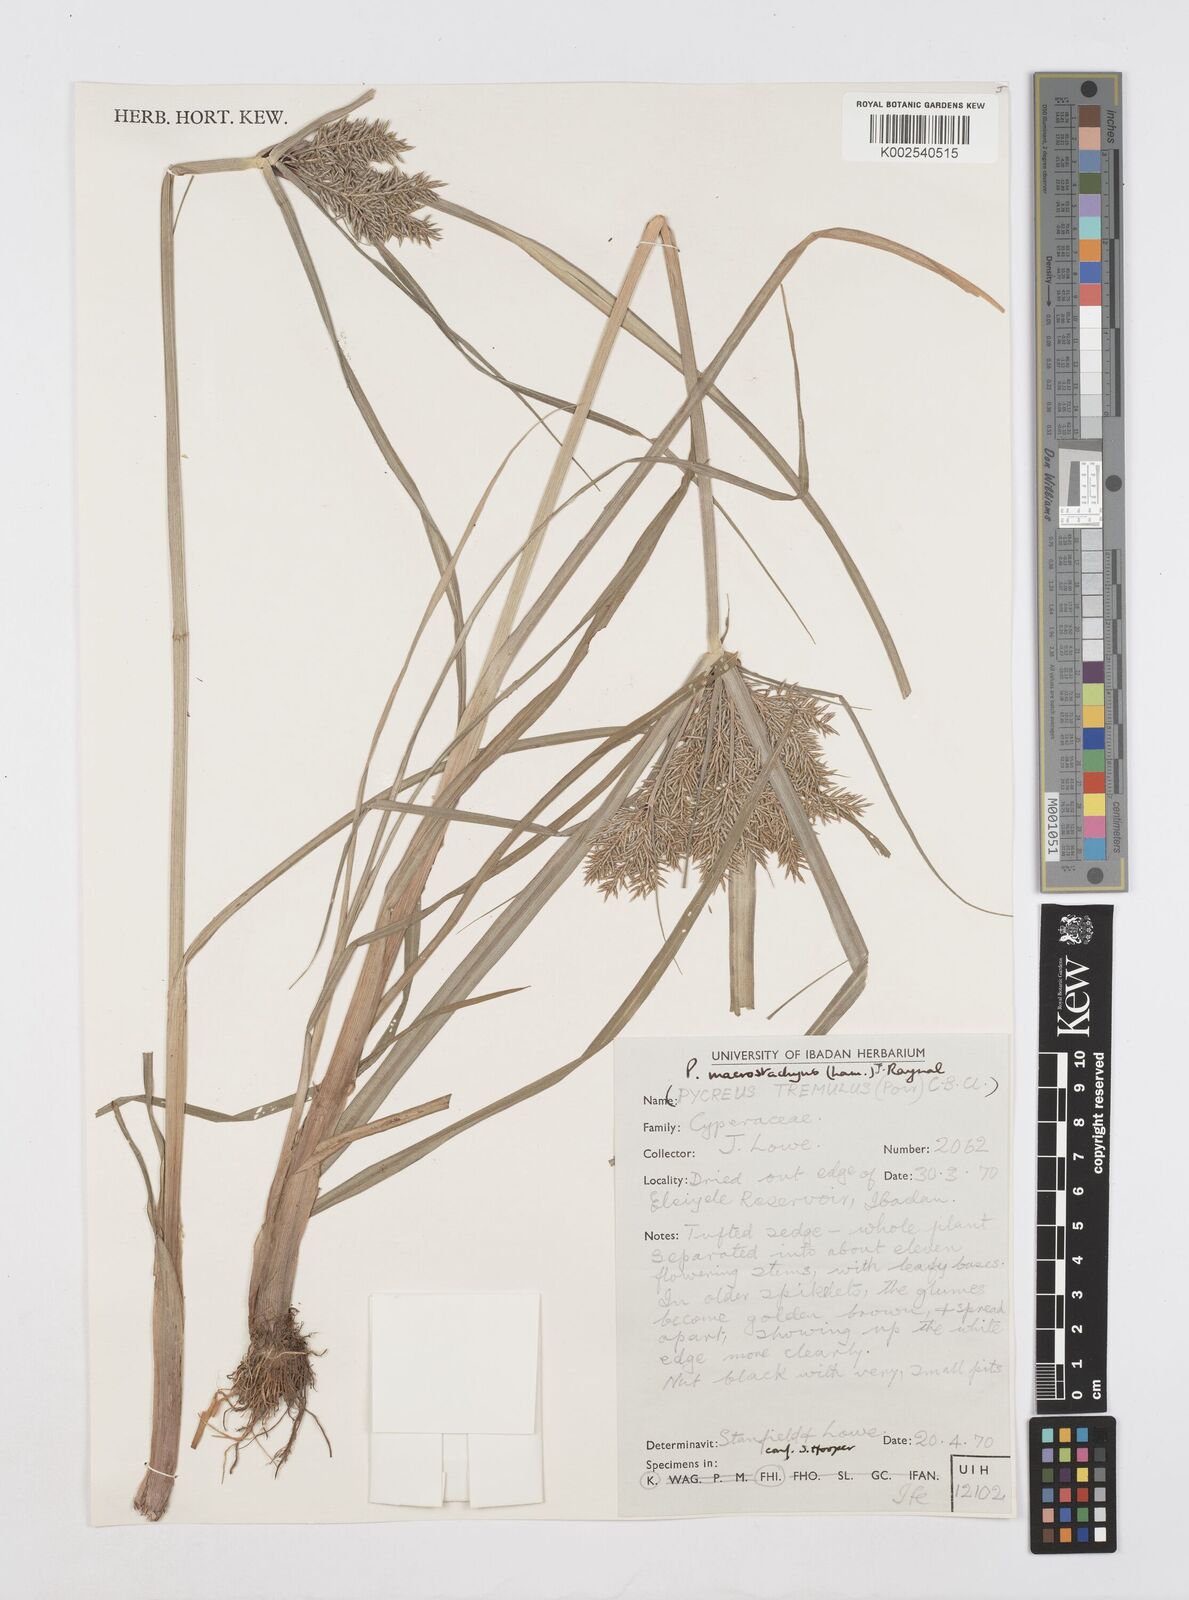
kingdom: Plantae
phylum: Tracheophyta
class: Liliopsida
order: Poales
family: Cyperaceae
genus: Cyperus
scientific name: Cyperus macrostachyos
